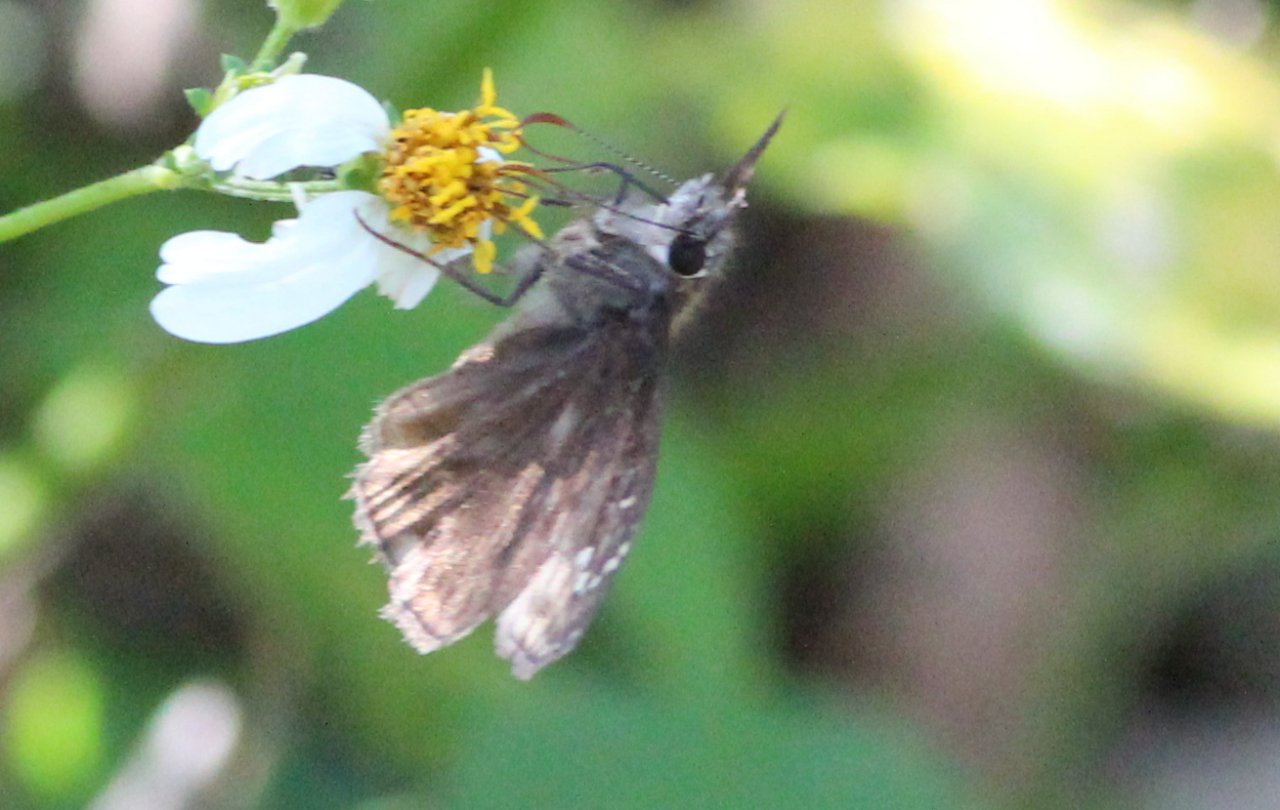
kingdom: Animalia
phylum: Arthropoda
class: Insecta
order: Lepidoptera
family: Hesperiidae
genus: Gesta
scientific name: Gesta
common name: Horace's Duskywing
